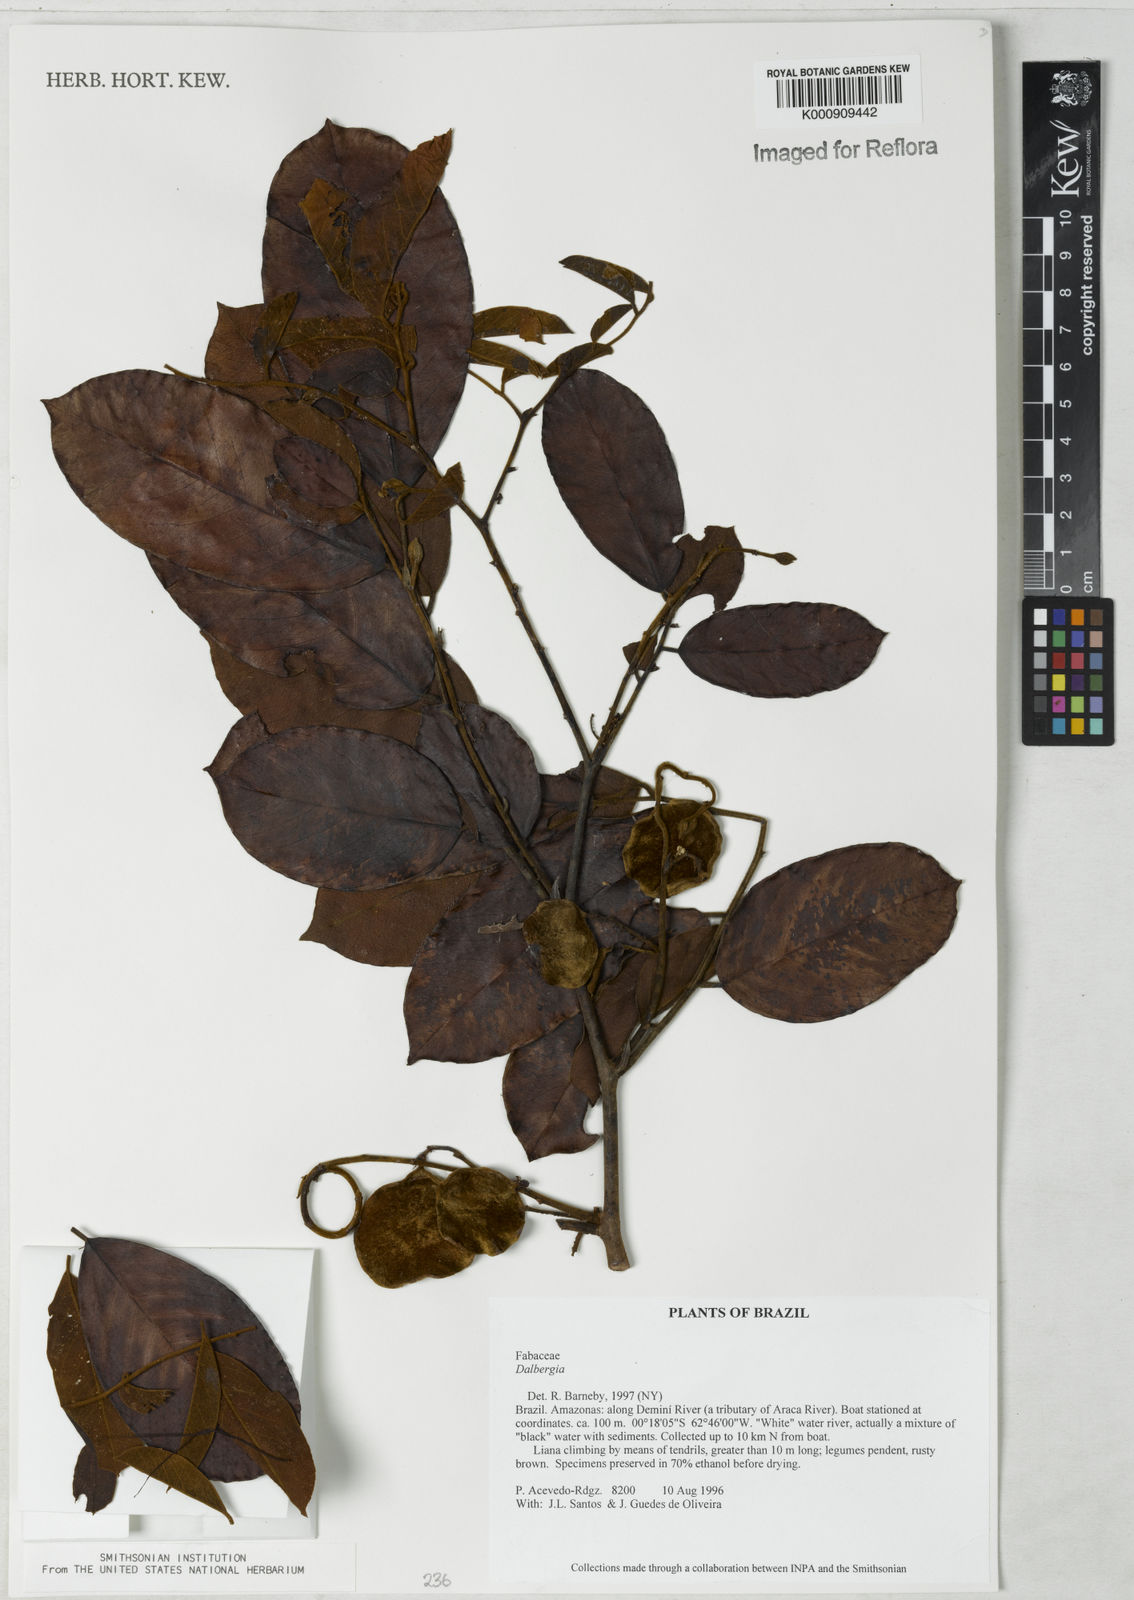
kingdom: Plantae
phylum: Tracheophyta
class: Magnoliopsida
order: Fabales
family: Fabaceae
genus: Dalbergia
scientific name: Dalbergia
